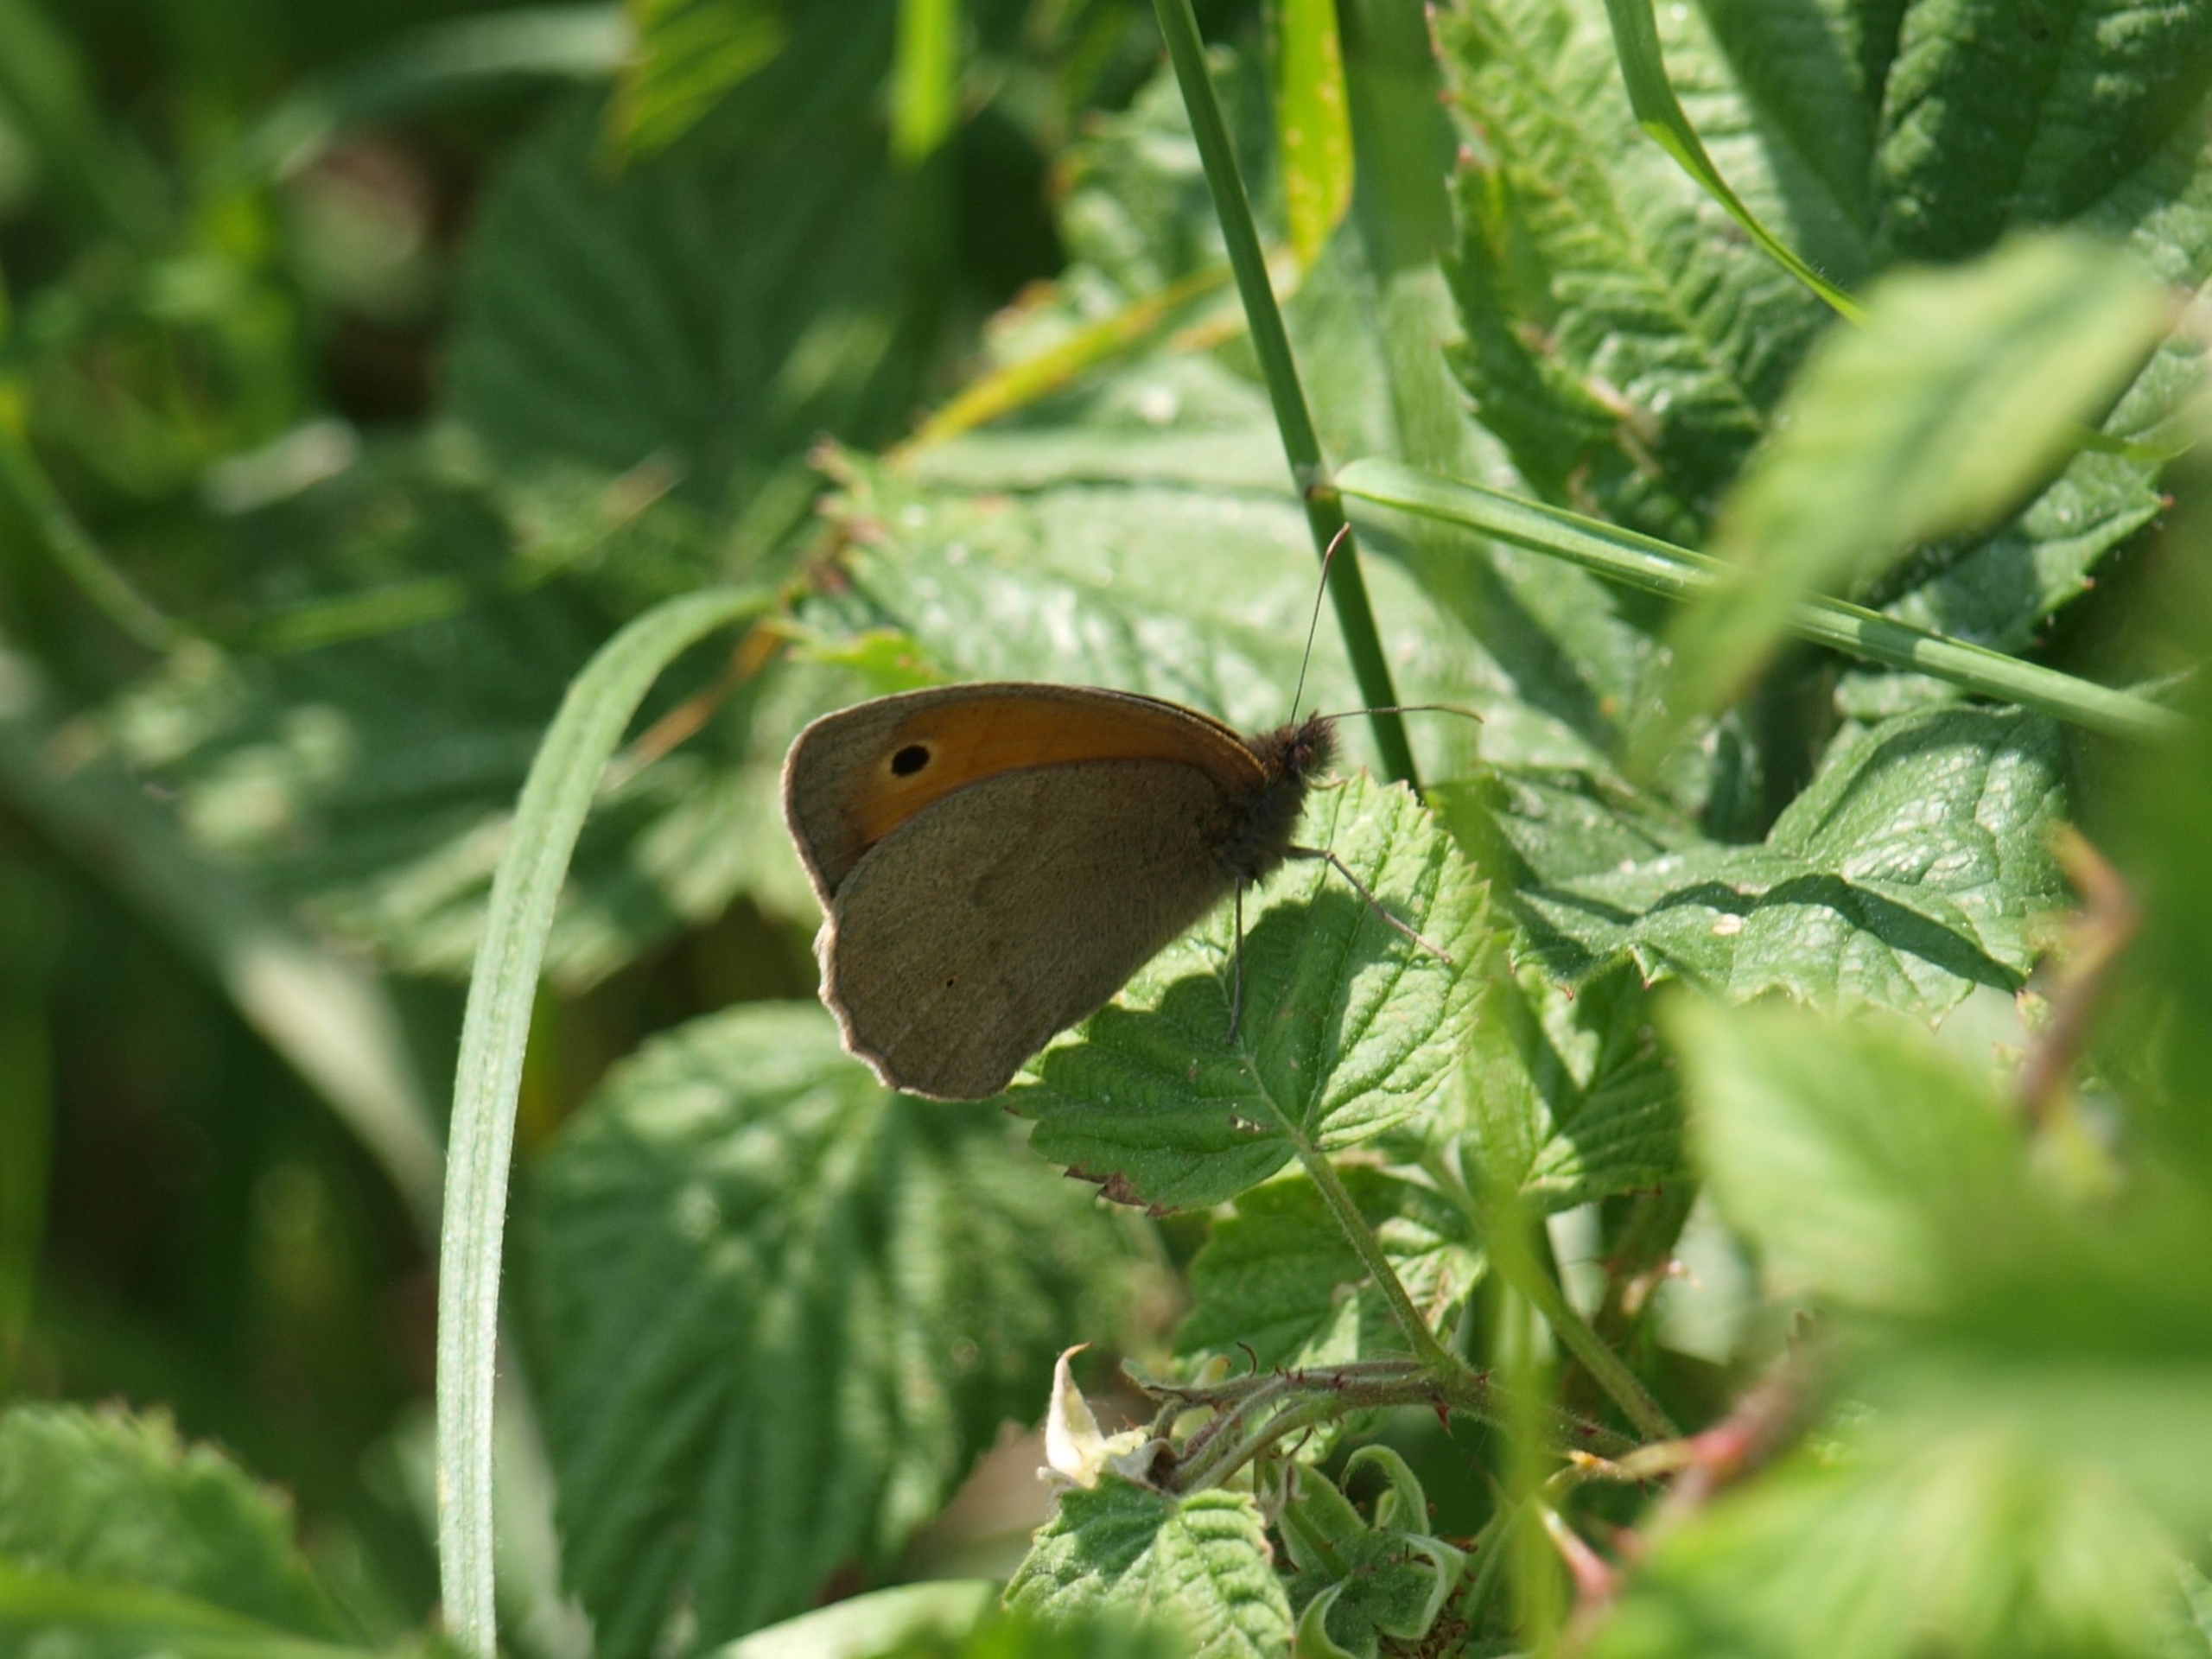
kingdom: Animalia
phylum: Arthropoda
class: Insecta
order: Lepidoptera
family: Nymphalidae
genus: Maniola
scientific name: Maniola jurtina
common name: Græsrandøje
